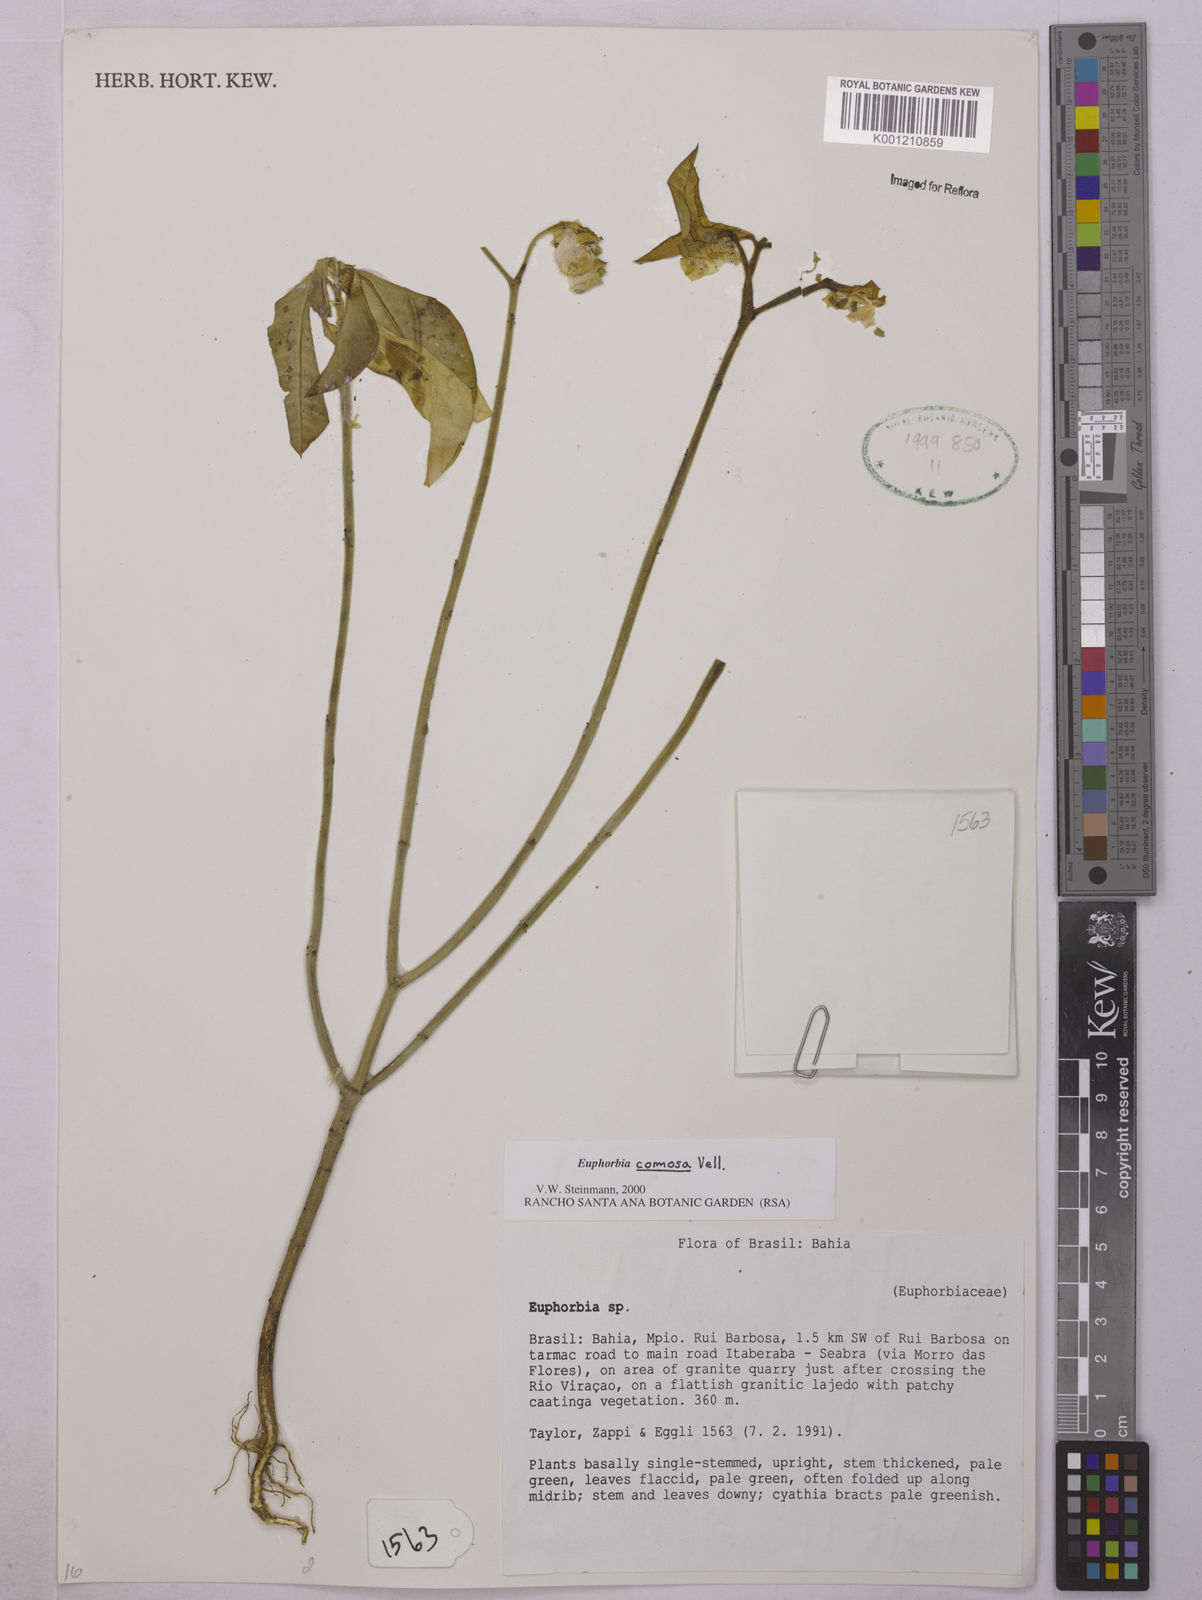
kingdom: Plantae
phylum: Tracheophyta
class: Magnoliopsida
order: Malpighiales
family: Euphorbiaceae
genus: Euphorbia
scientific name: Euphorbia comosa
